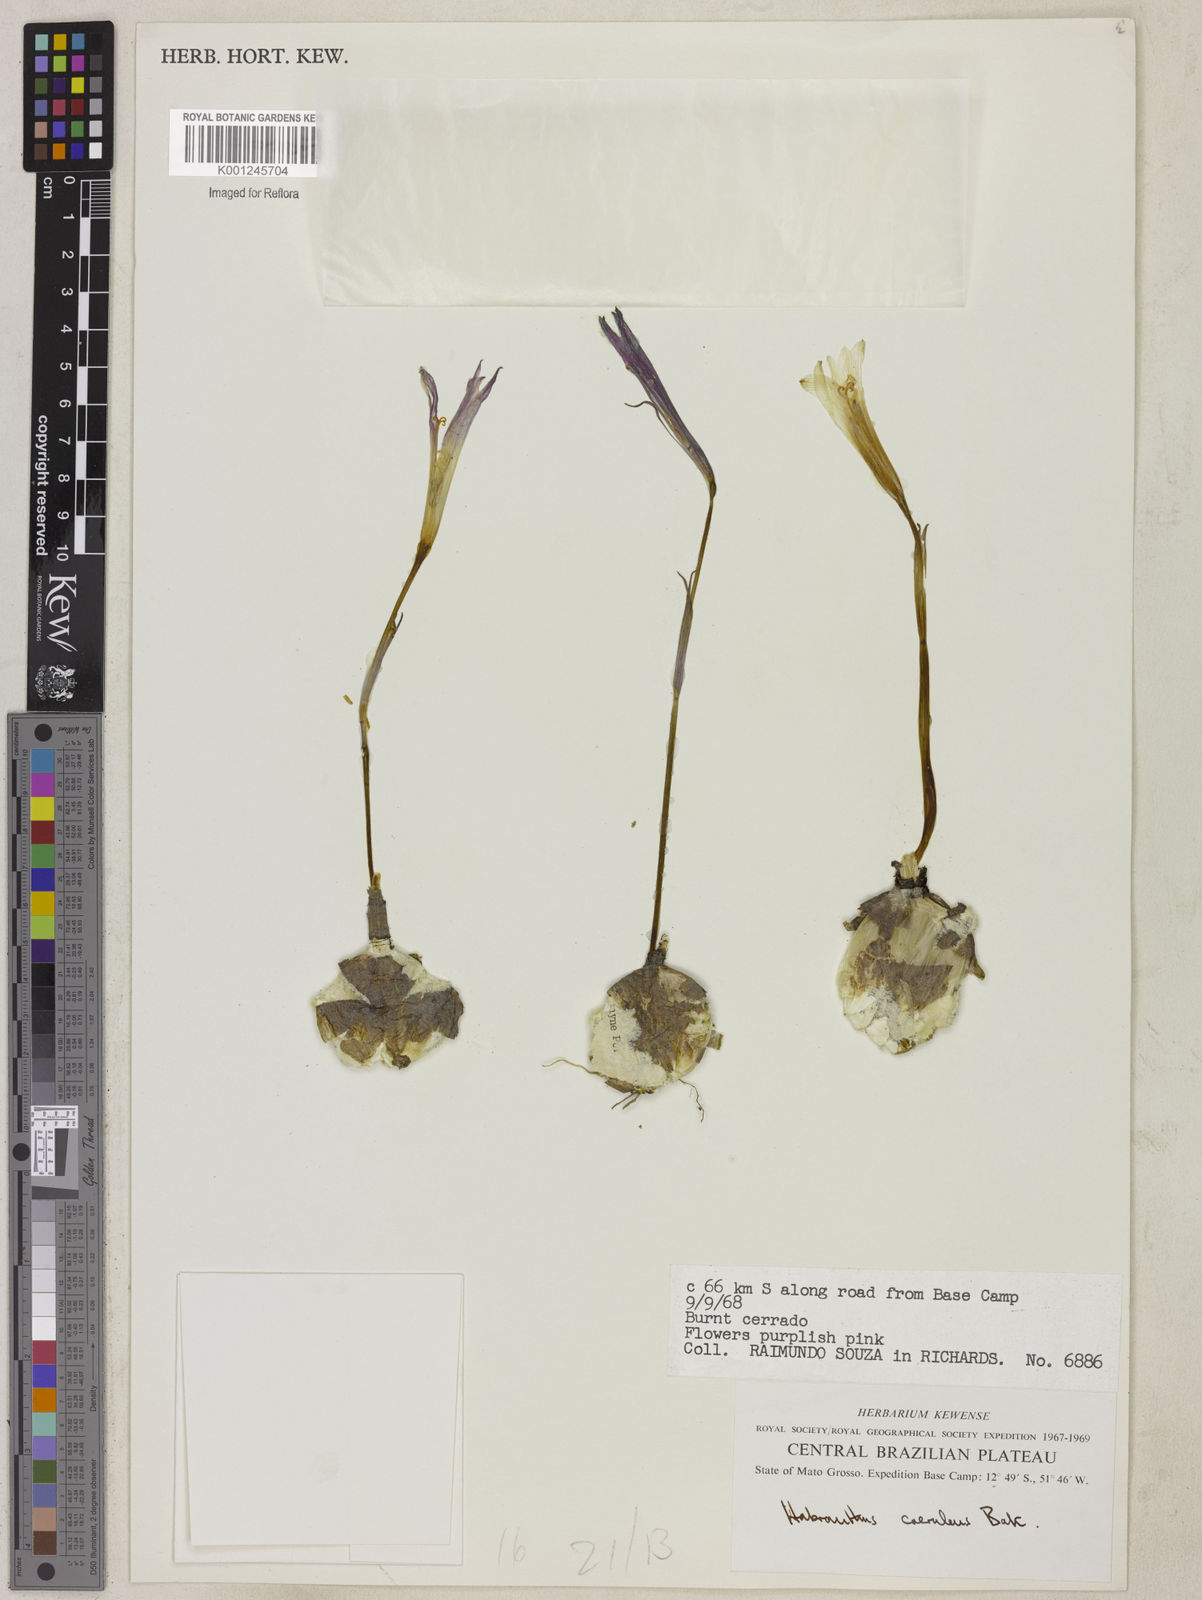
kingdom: Plantae
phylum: Tracheophyta
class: Liliopsida
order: Asparagales
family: Amaryllidaceae
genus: Zephyranthes
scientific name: Zephyranthes caerulea
